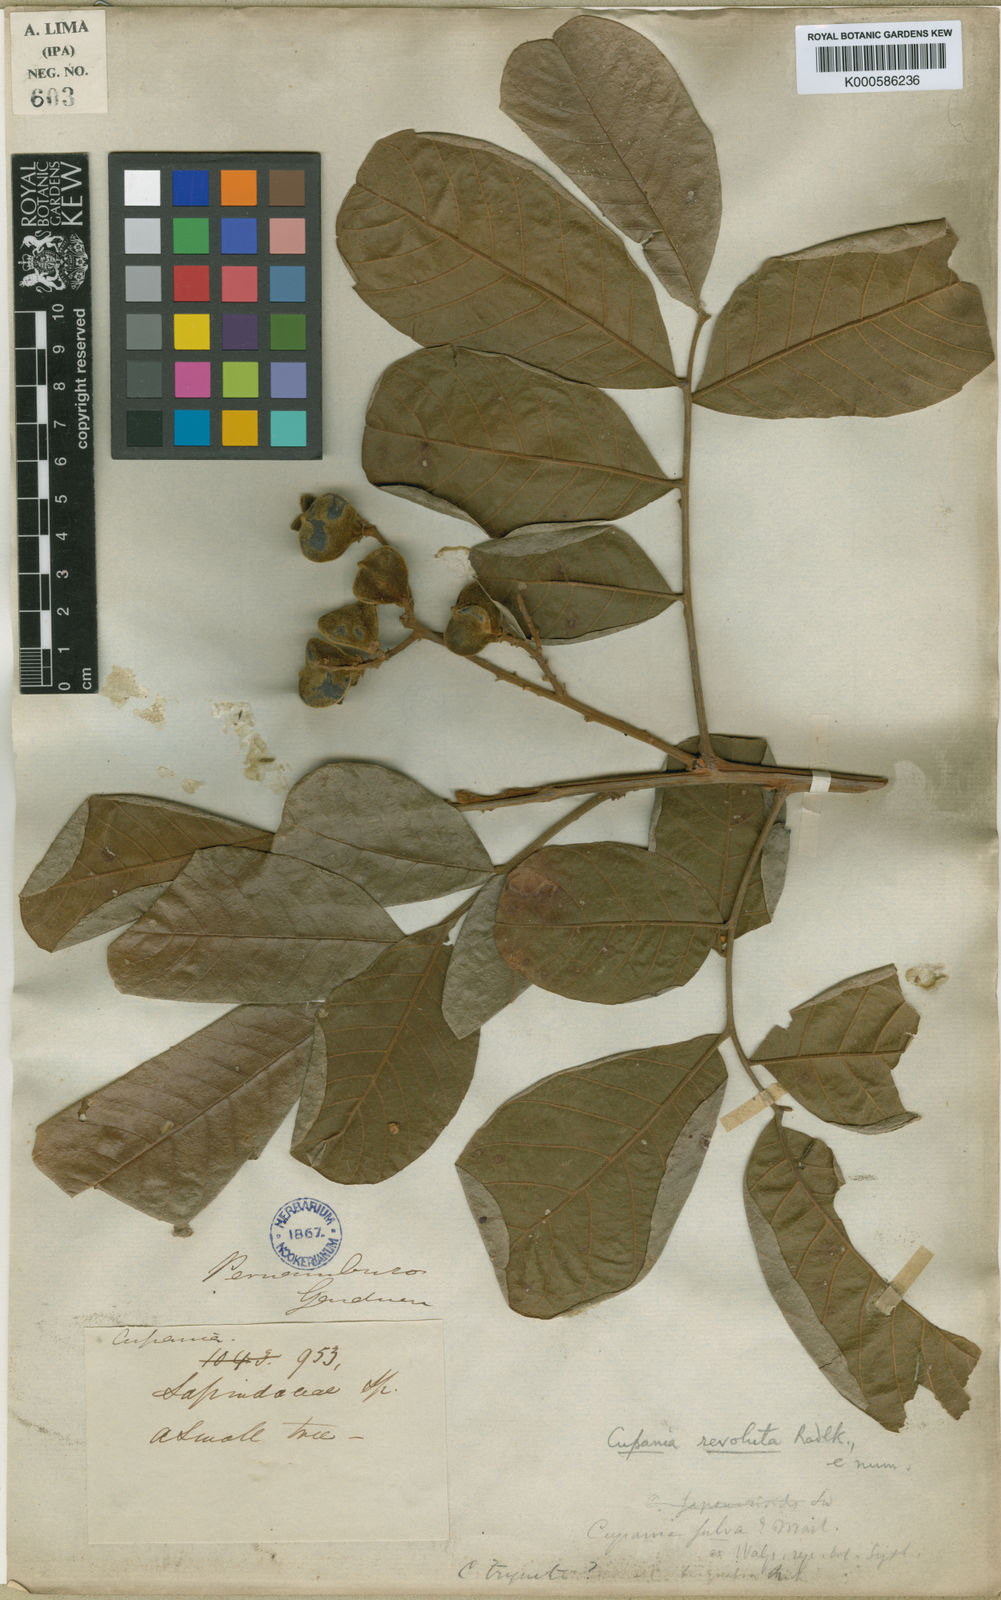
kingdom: Plantae
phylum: Tracheophyta
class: Magnoliopsida
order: Sapindales
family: Sapindaceae
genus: Cupania
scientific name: Cupania impressinervia
